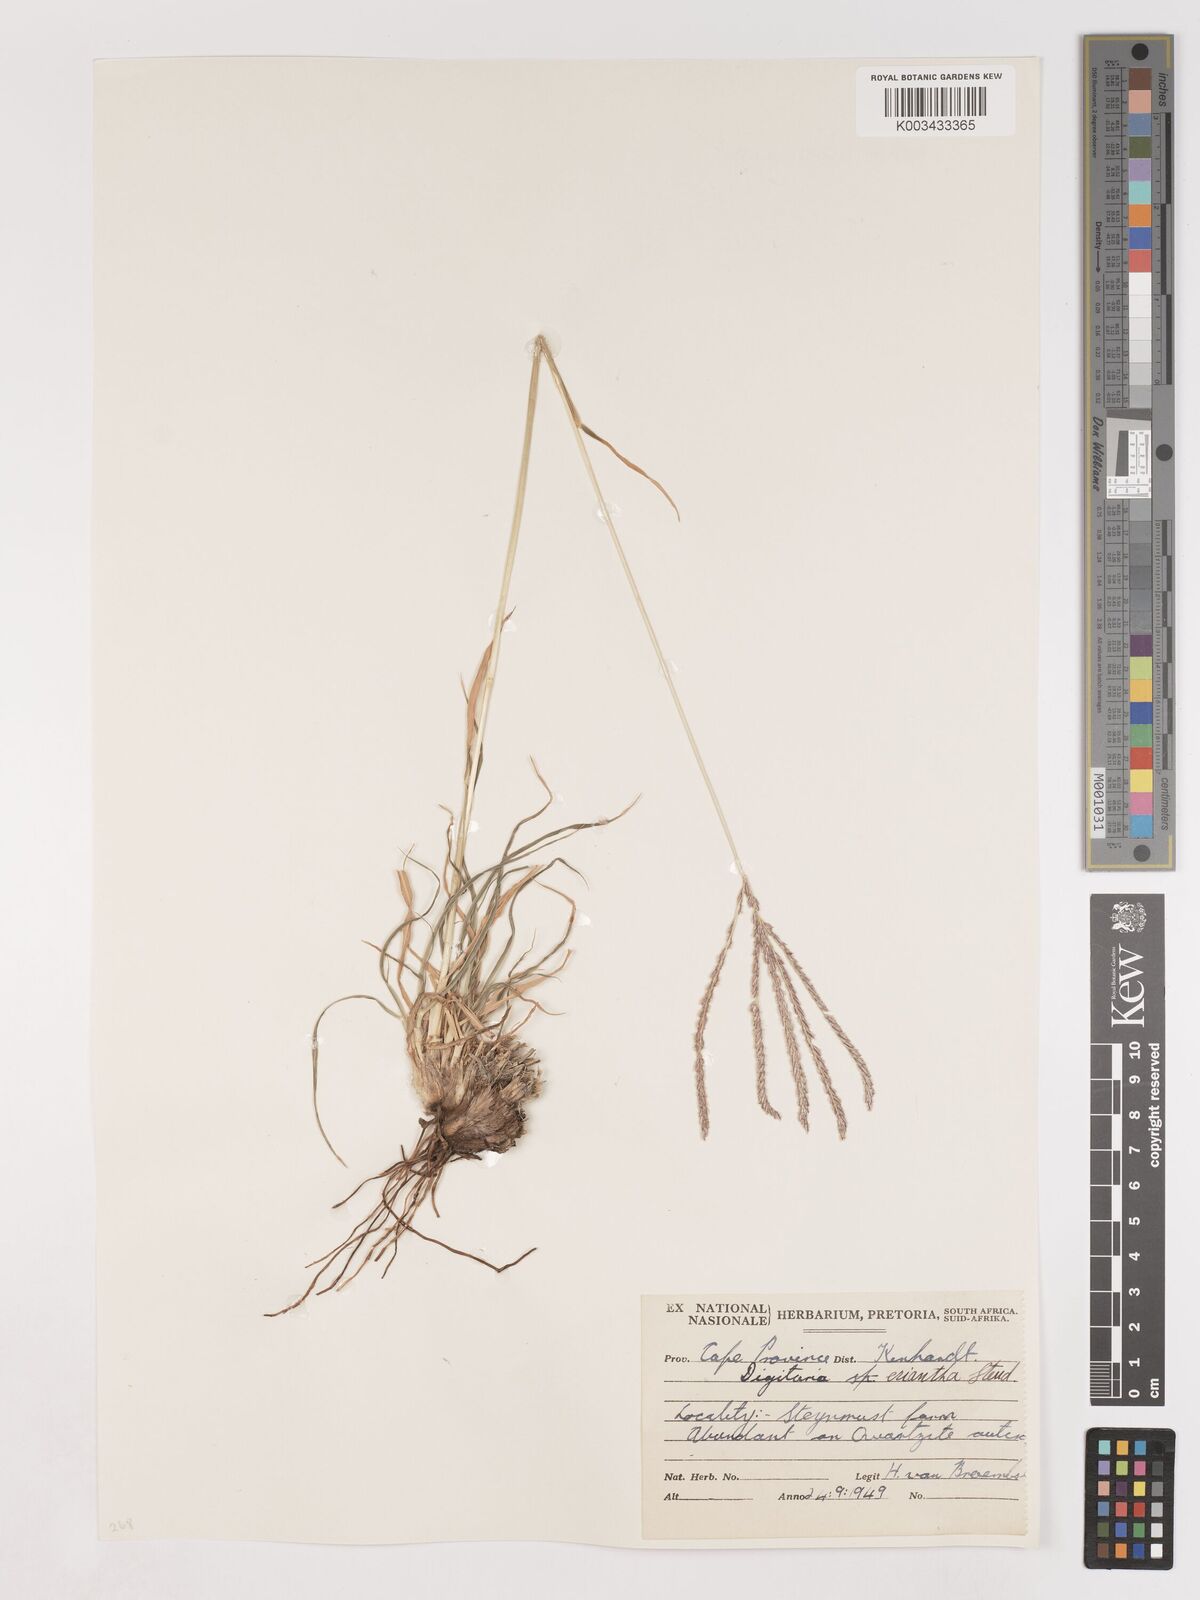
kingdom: Plantae
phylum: Tracheophyta
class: Liliopsida
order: Poales
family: Poaceae
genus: Digitaria
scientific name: Digitaria eriantha
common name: Digitgrass
